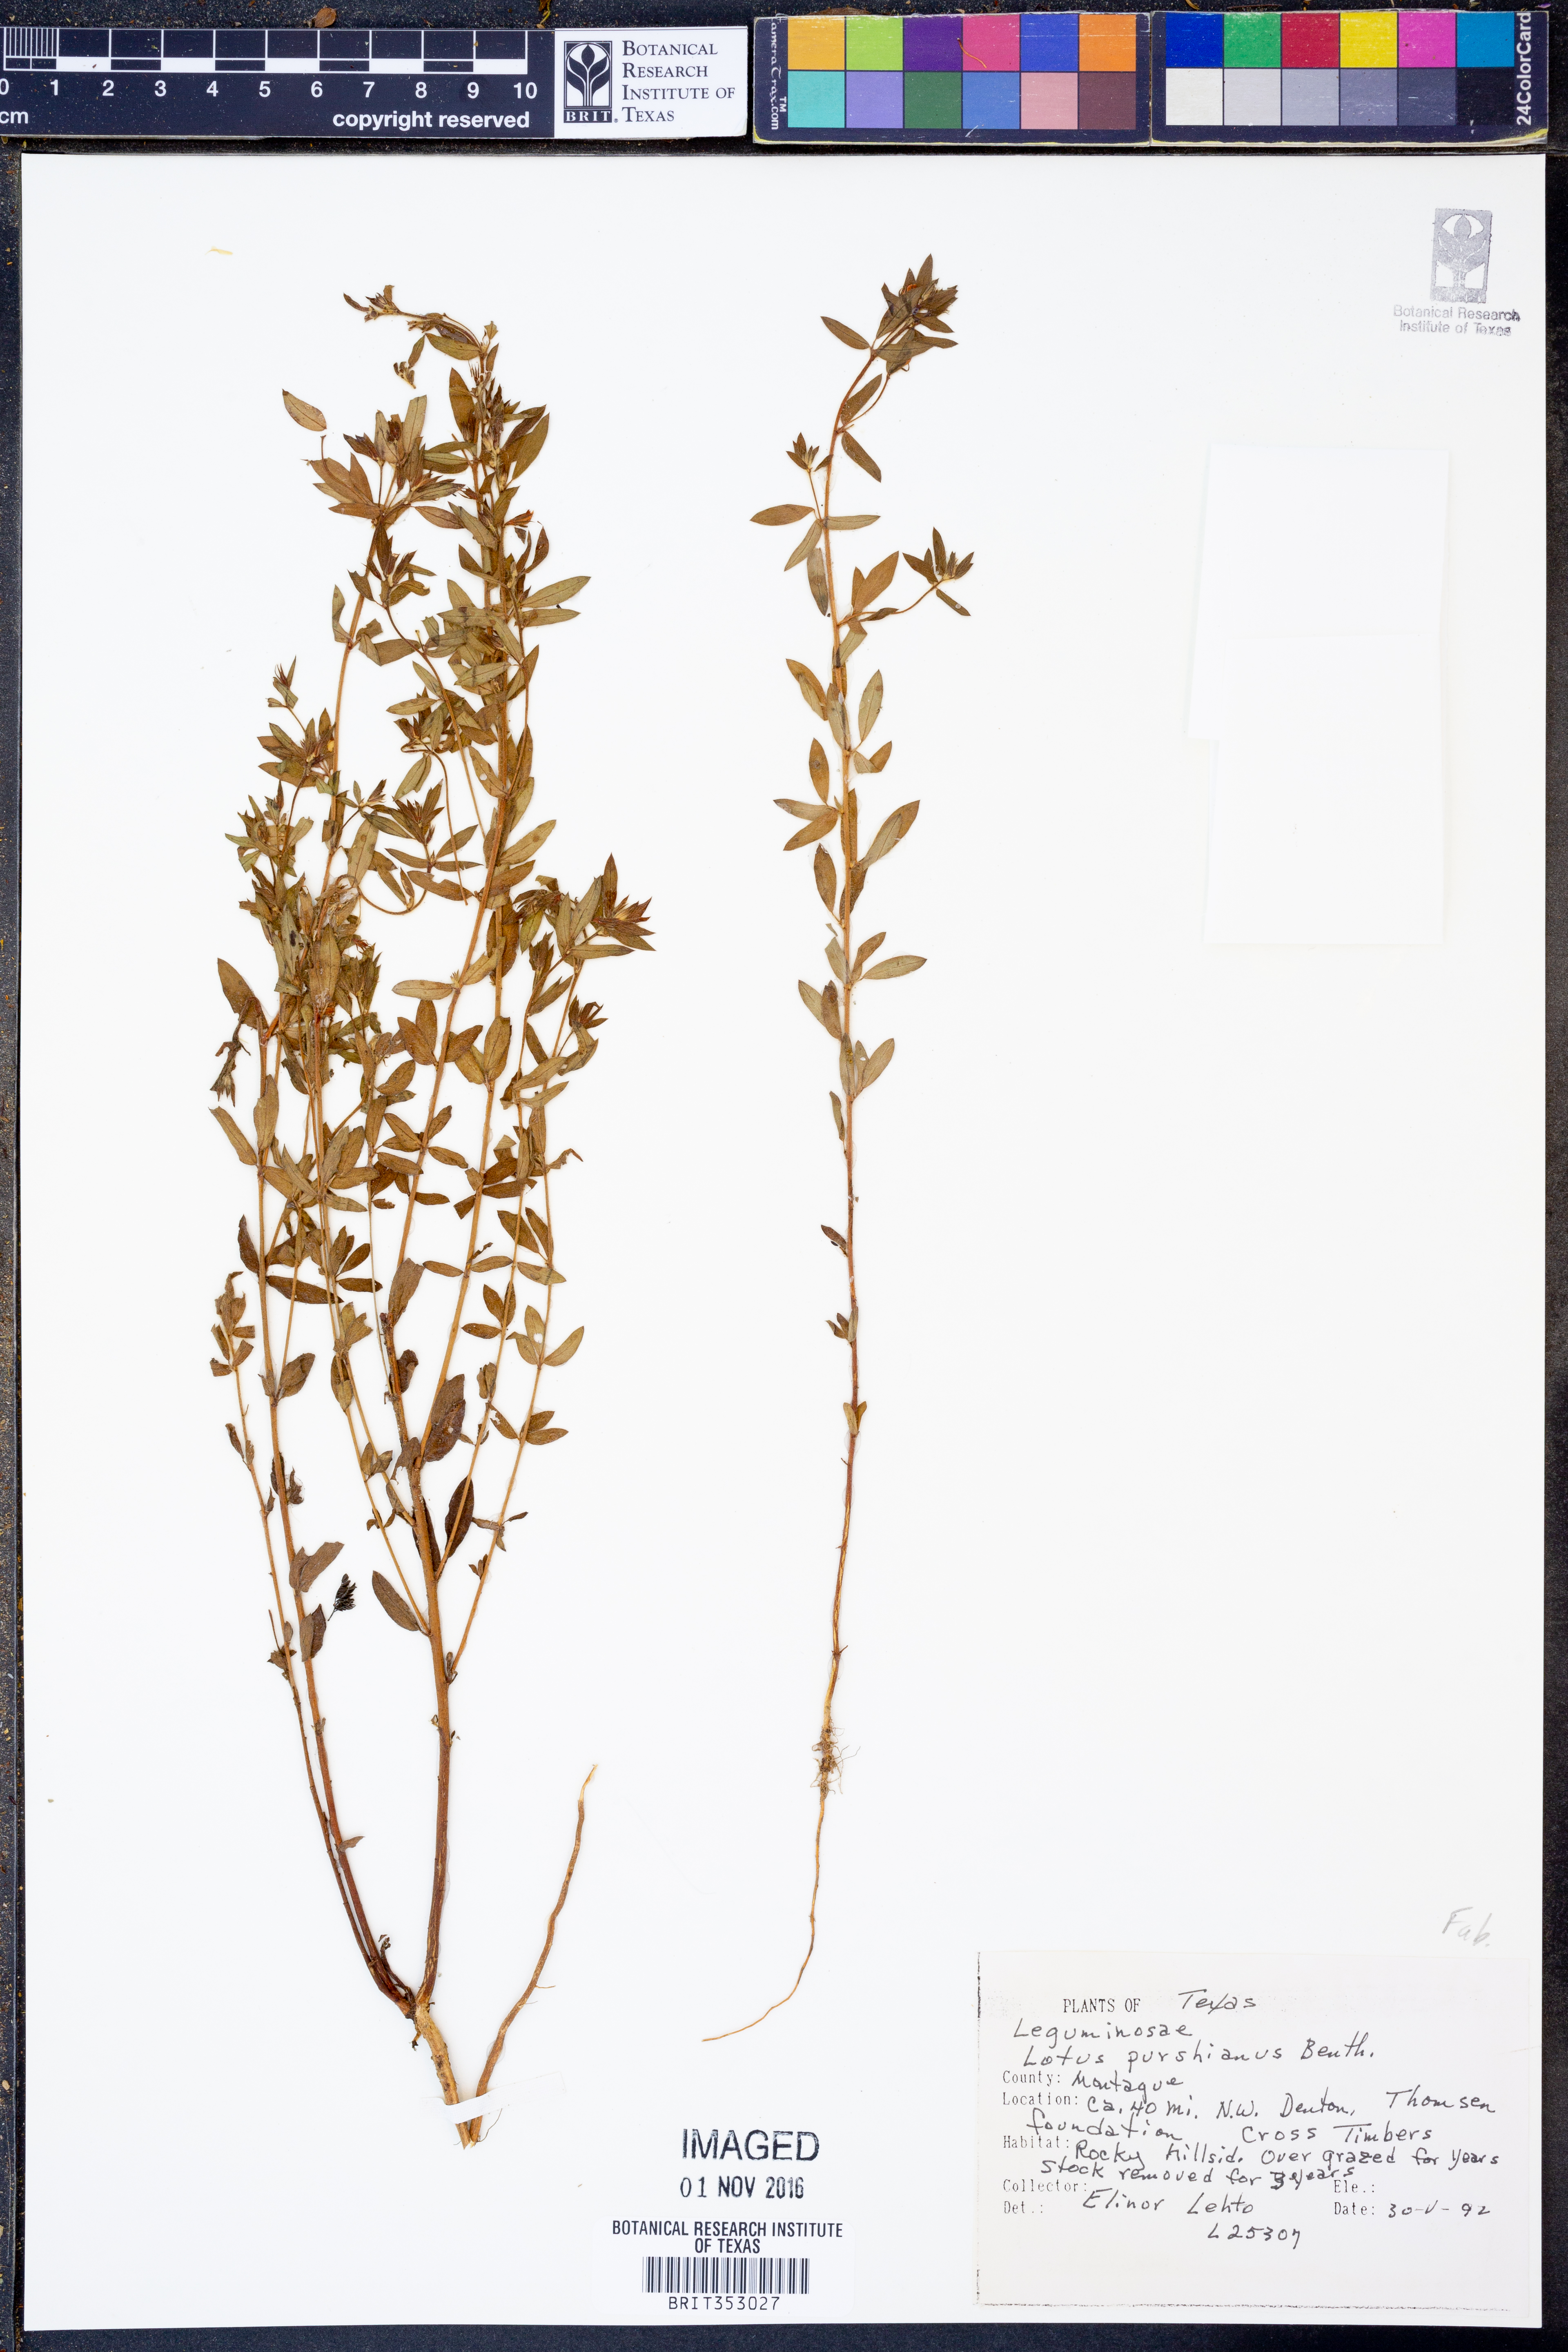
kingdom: Plantae
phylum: Tracheophyta
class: Magnoliopsida
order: Fabales
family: Fabaceae
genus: Acmispon
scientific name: Acmispon americanus
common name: American bird's-foot trefoil
